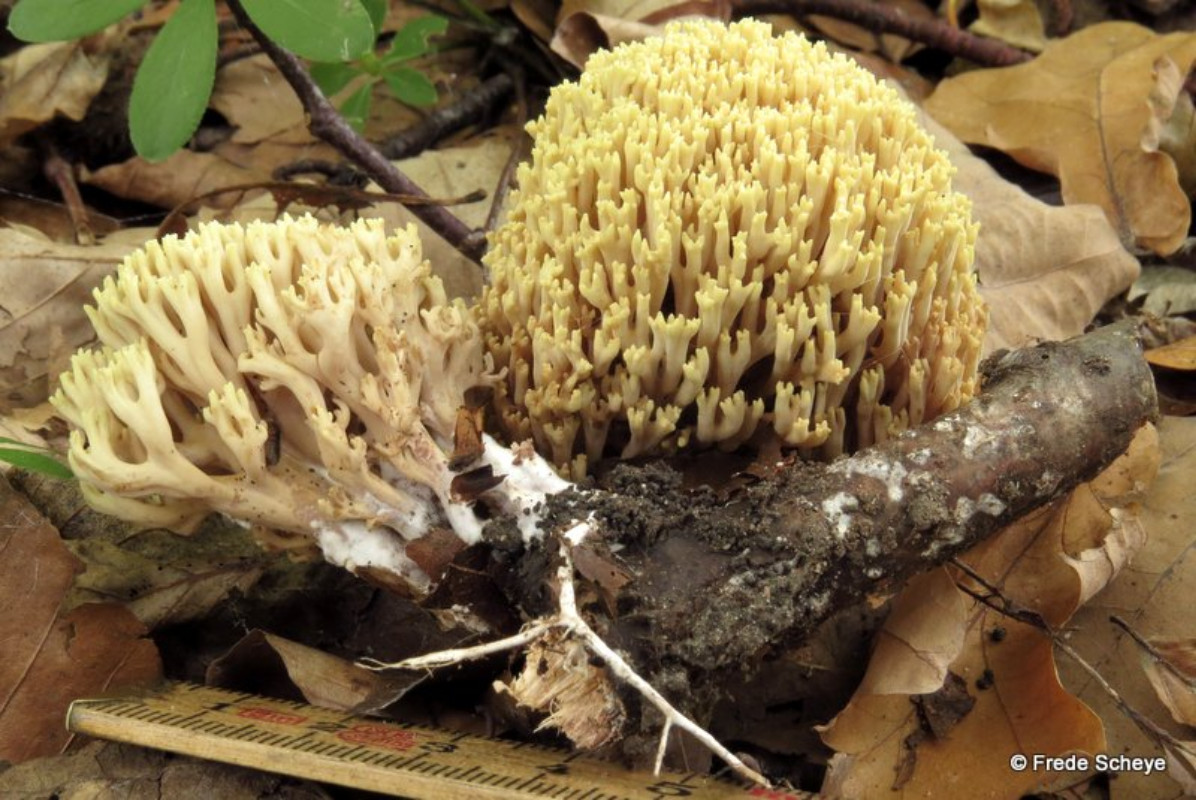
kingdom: Fungi
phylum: Basidiomycota
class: Agaricomycetes
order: Gomphales
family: Gomphaceae
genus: Ramaria
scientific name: Ramaria stricta
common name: rank koralsvamp
